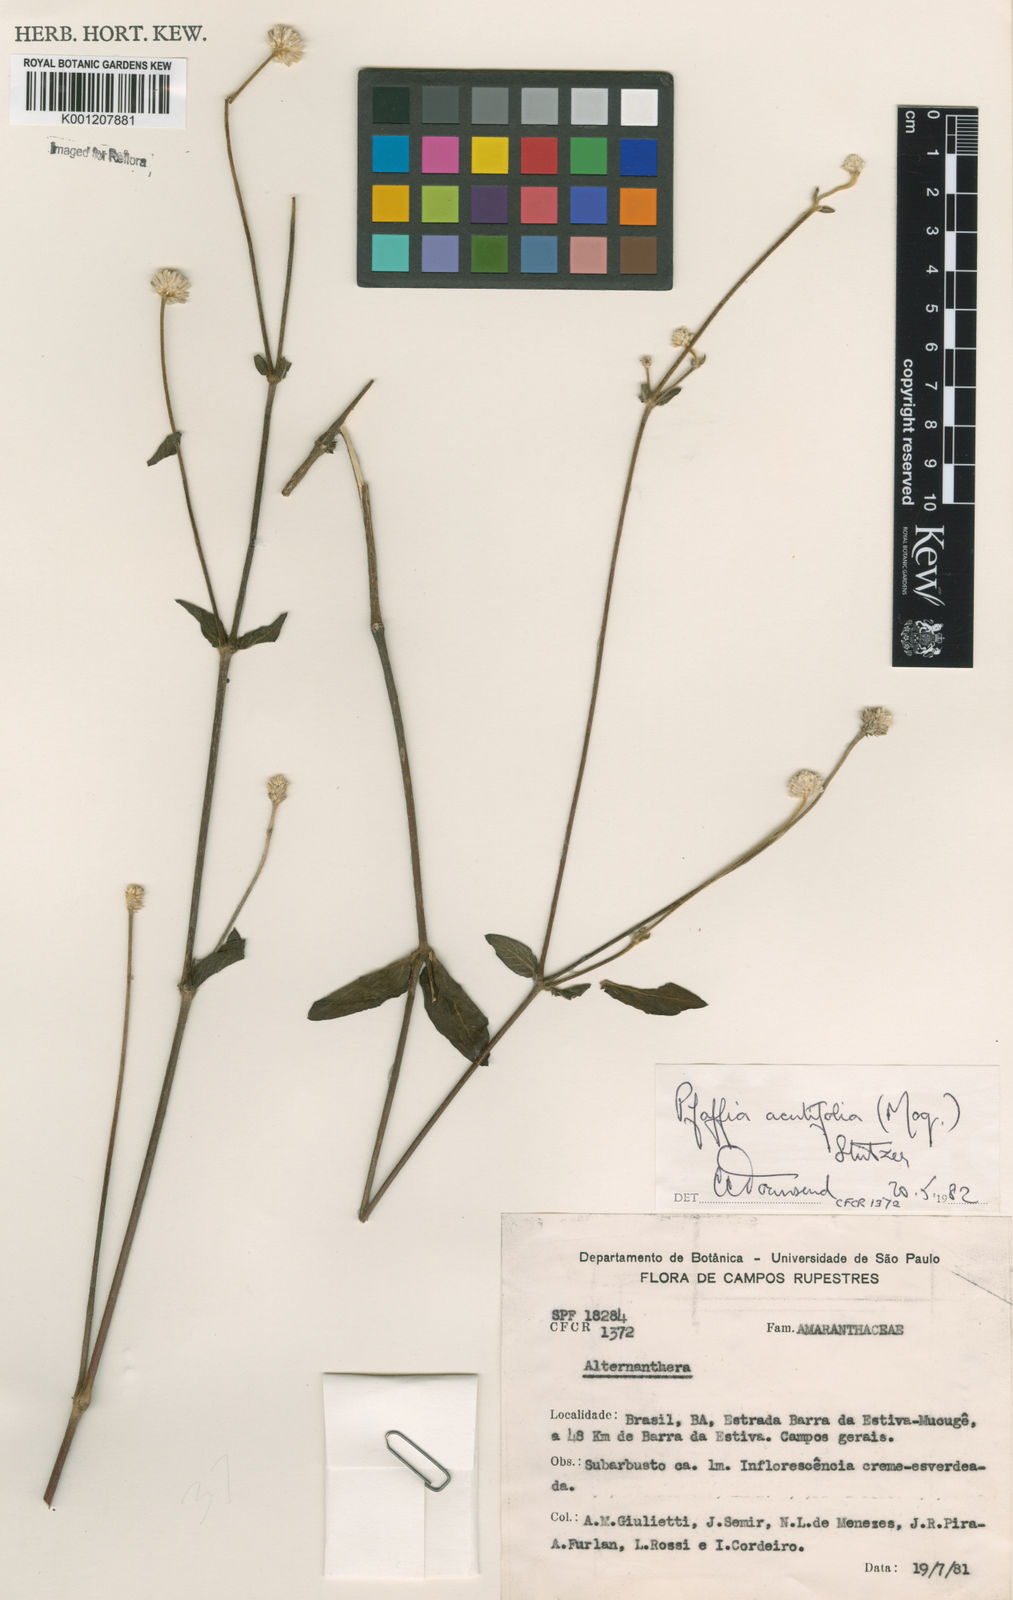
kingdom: Plantae
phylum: Tracheophyta
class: Magnoliopsida
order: Caryophyllales
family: Amaranthaceae
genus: Pfaffia
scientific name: Pfaffia
